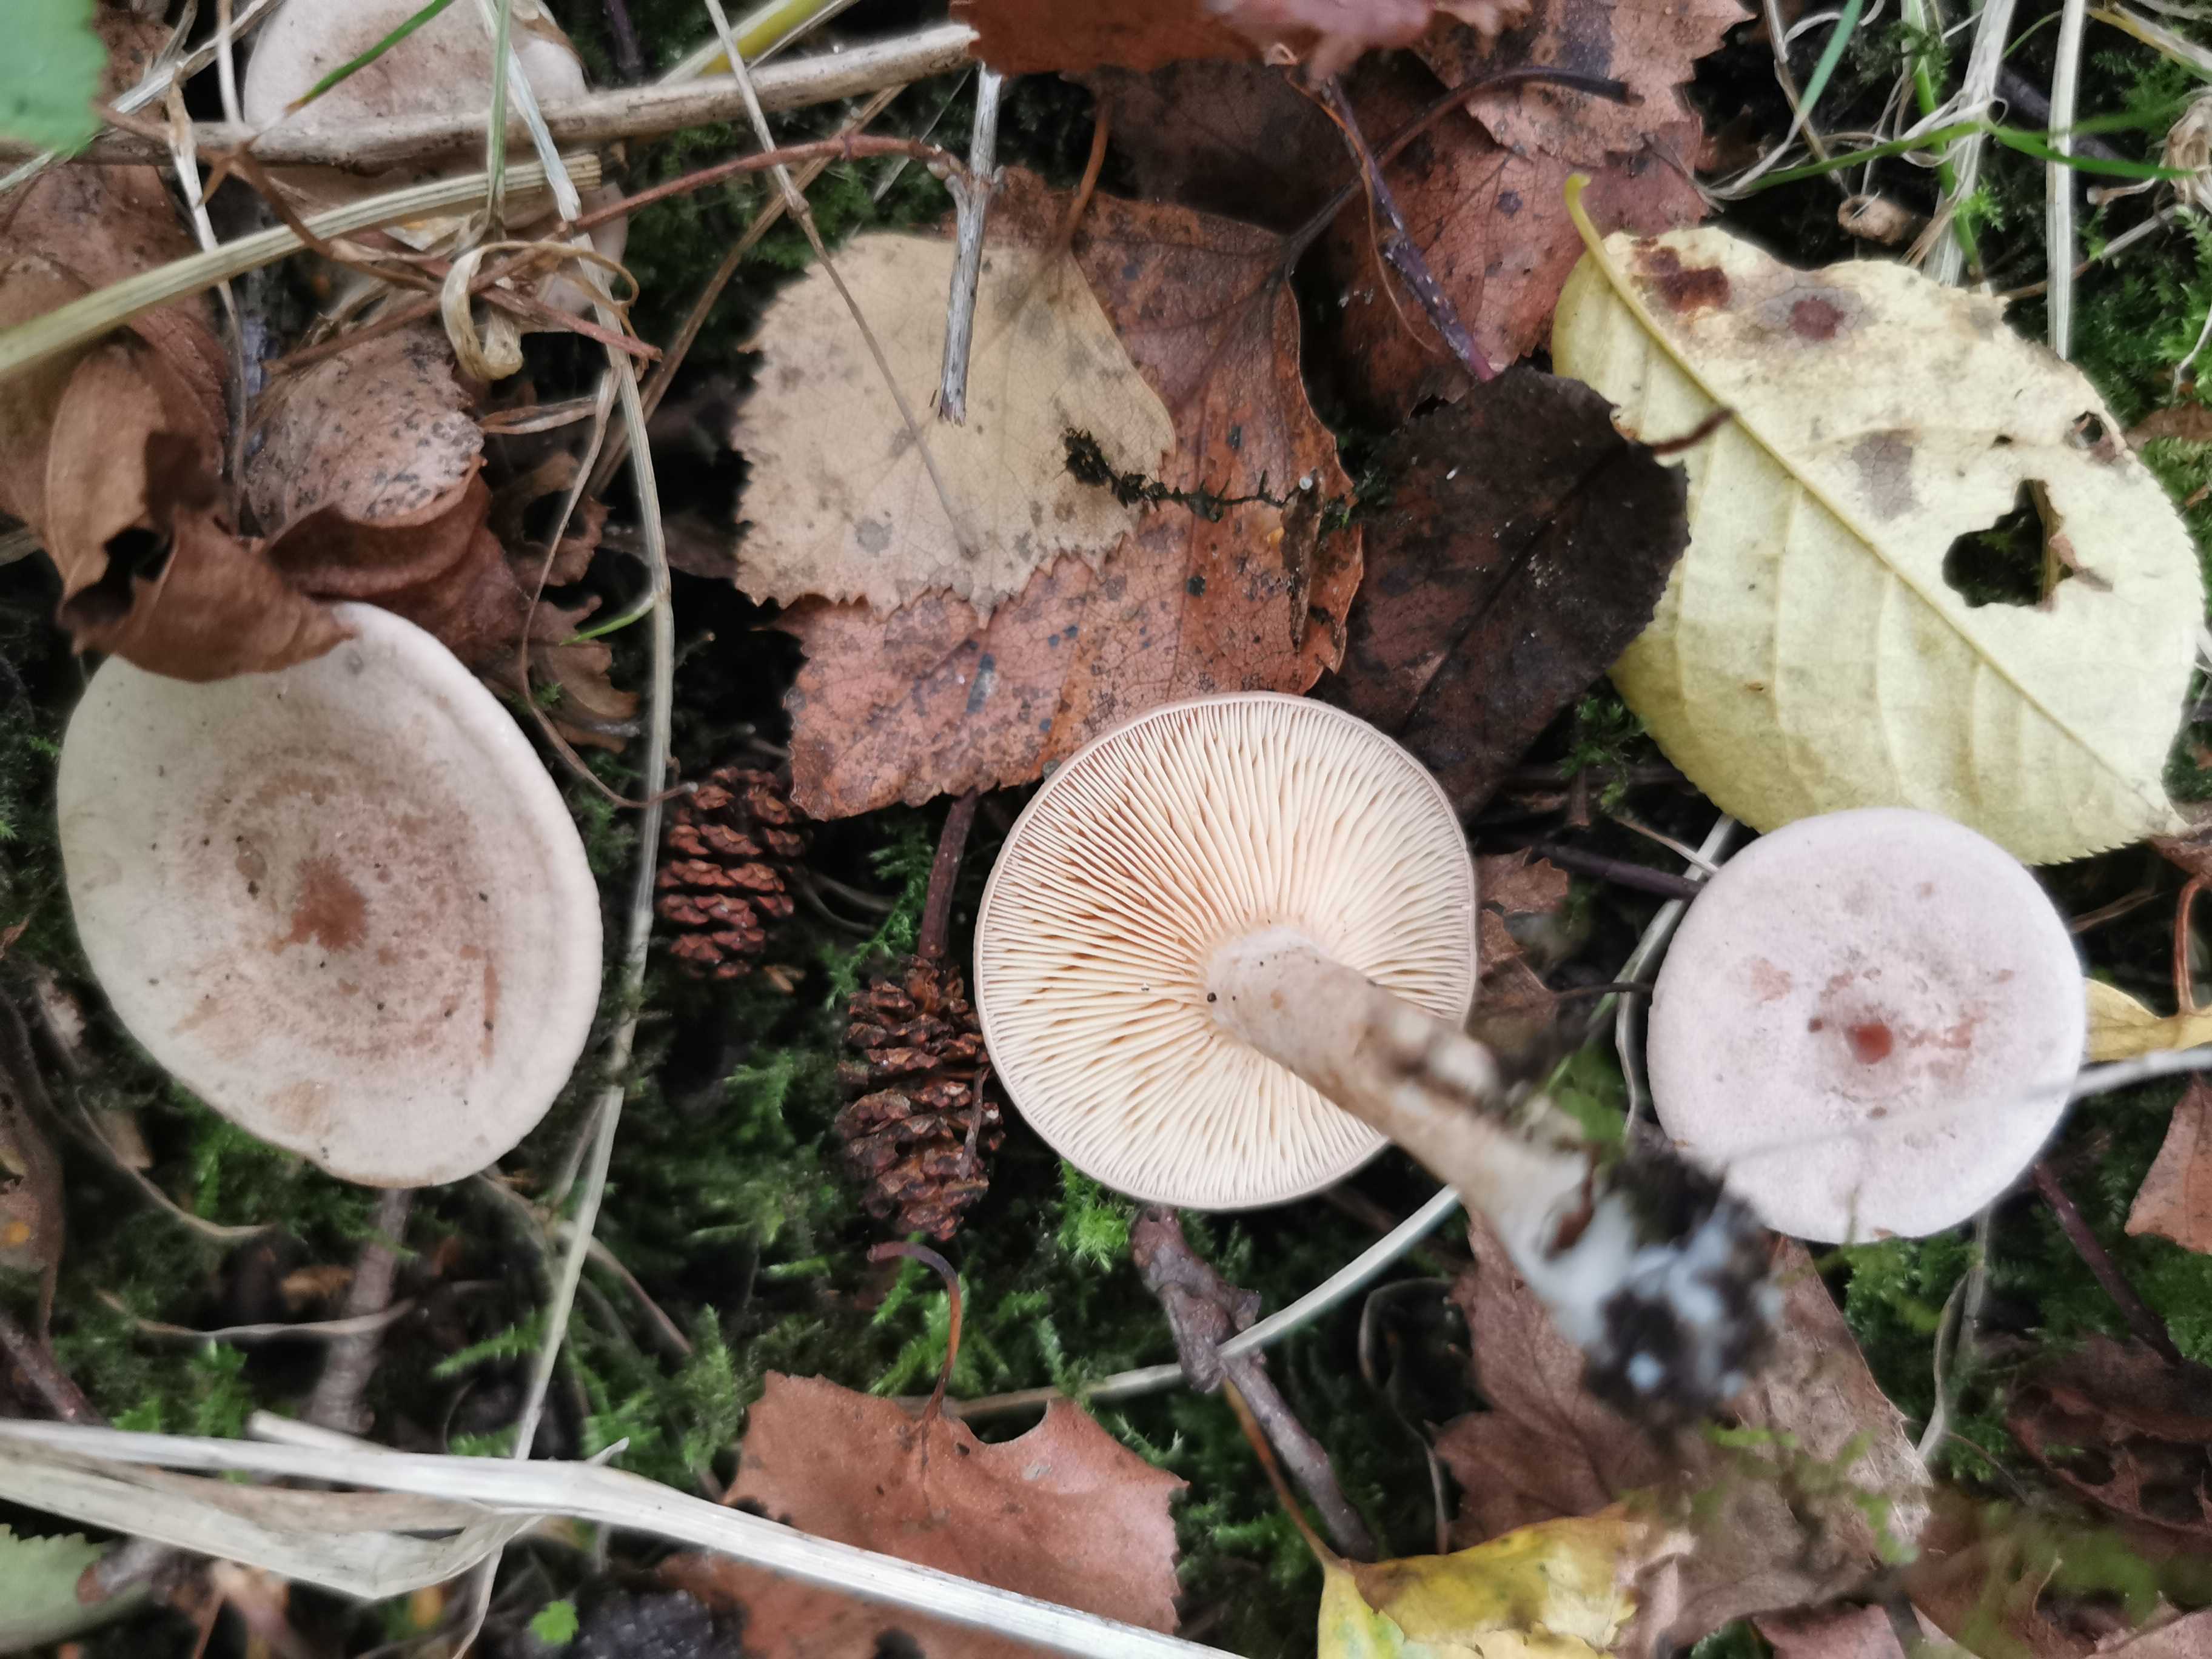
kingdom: Fungi
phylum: Basidiomycota
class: Agaricomycetes
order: Russulales
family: Russulaceae
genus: Lactarius
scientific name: Lactarius glyciosmus
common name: kokos-mælkehat
